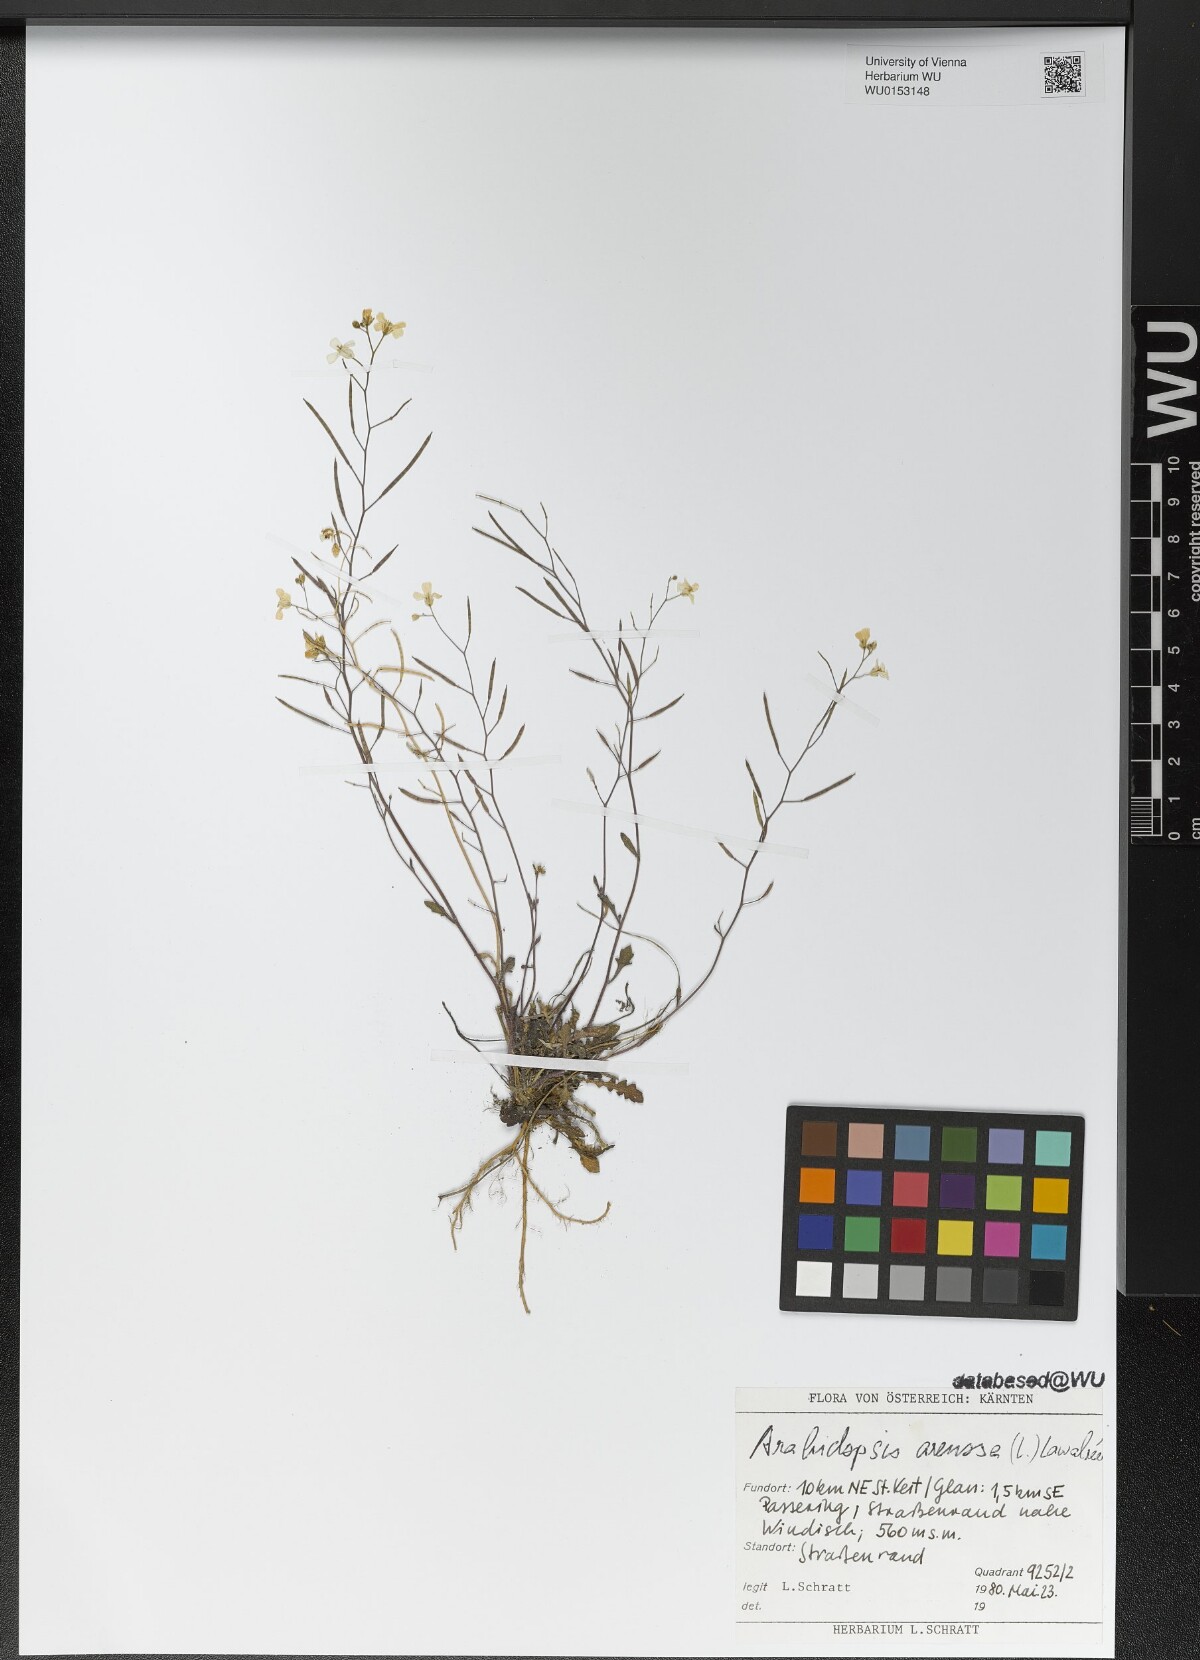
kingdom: Plantae
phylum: Tracheophyta
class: Magnoliopsida
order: Brassicales
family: Brassicaceae
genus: Arabidopsis
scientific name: Arabidopsis arenosa
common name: Sand rock-cress
